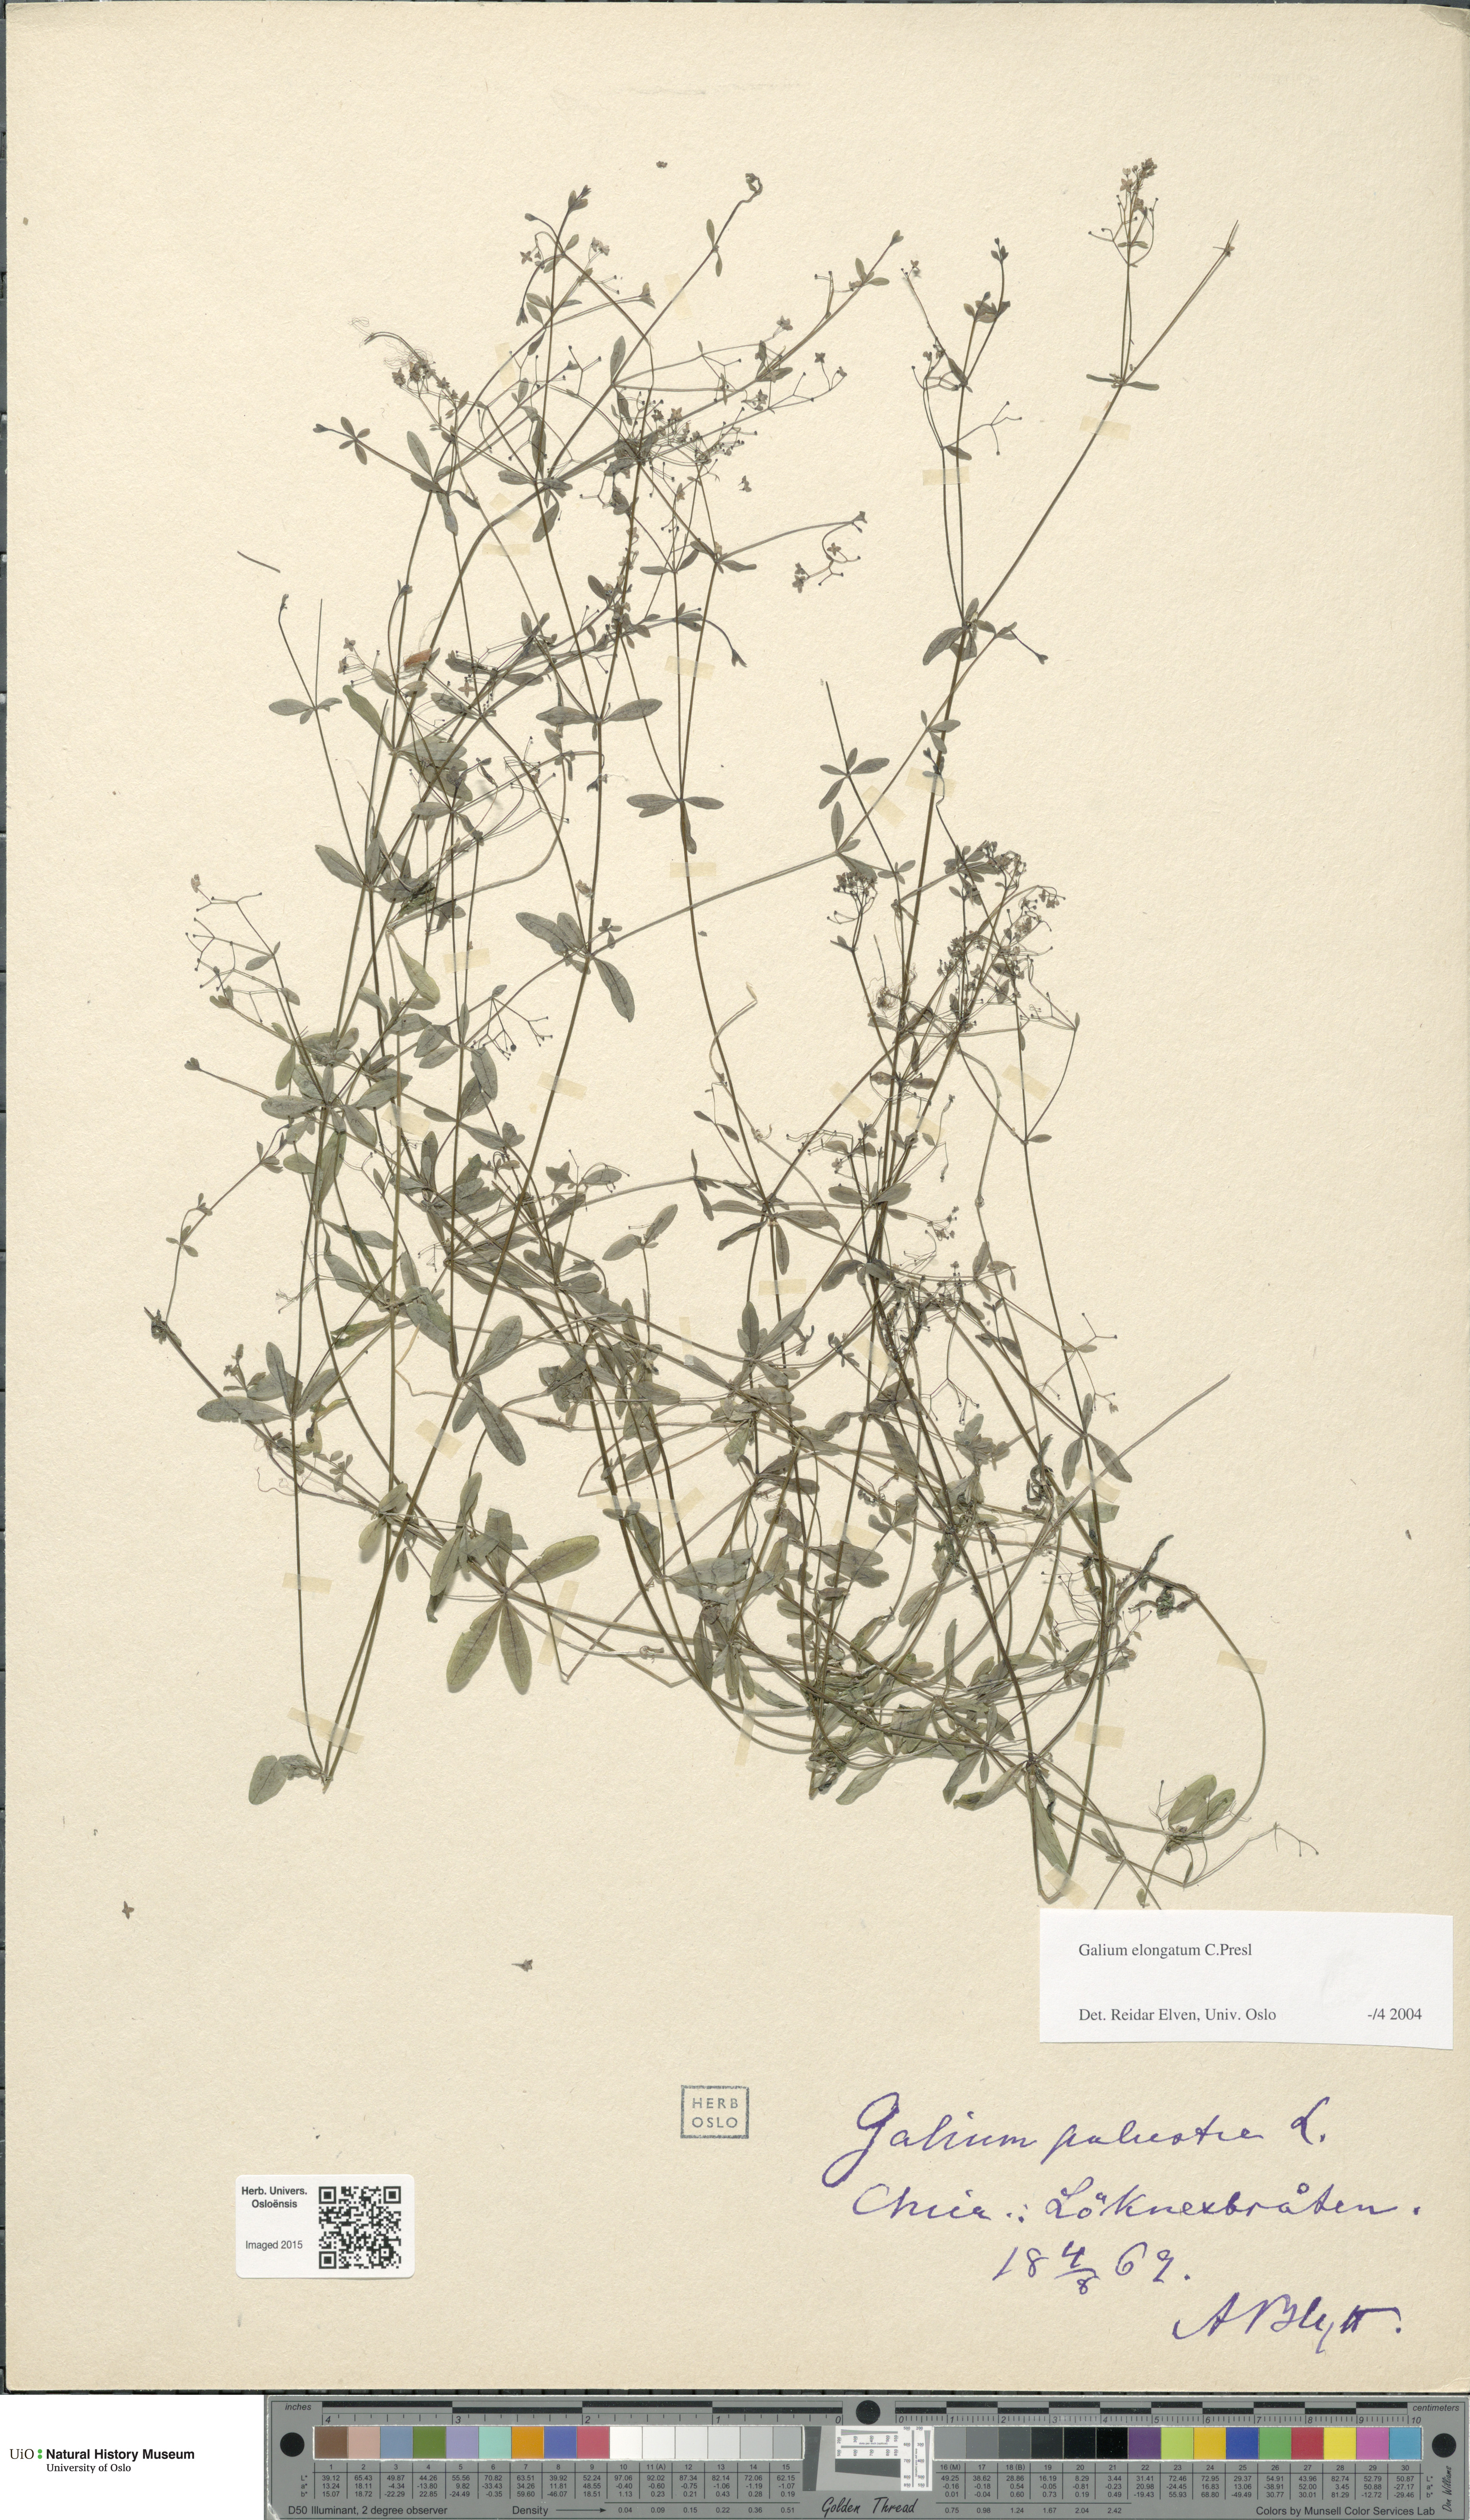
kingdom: Plantae
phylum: Tracheophyta
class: Magnoliopsida
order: Gentianales
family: Rubiaceae
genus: Galium
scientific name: Galium elongatum
